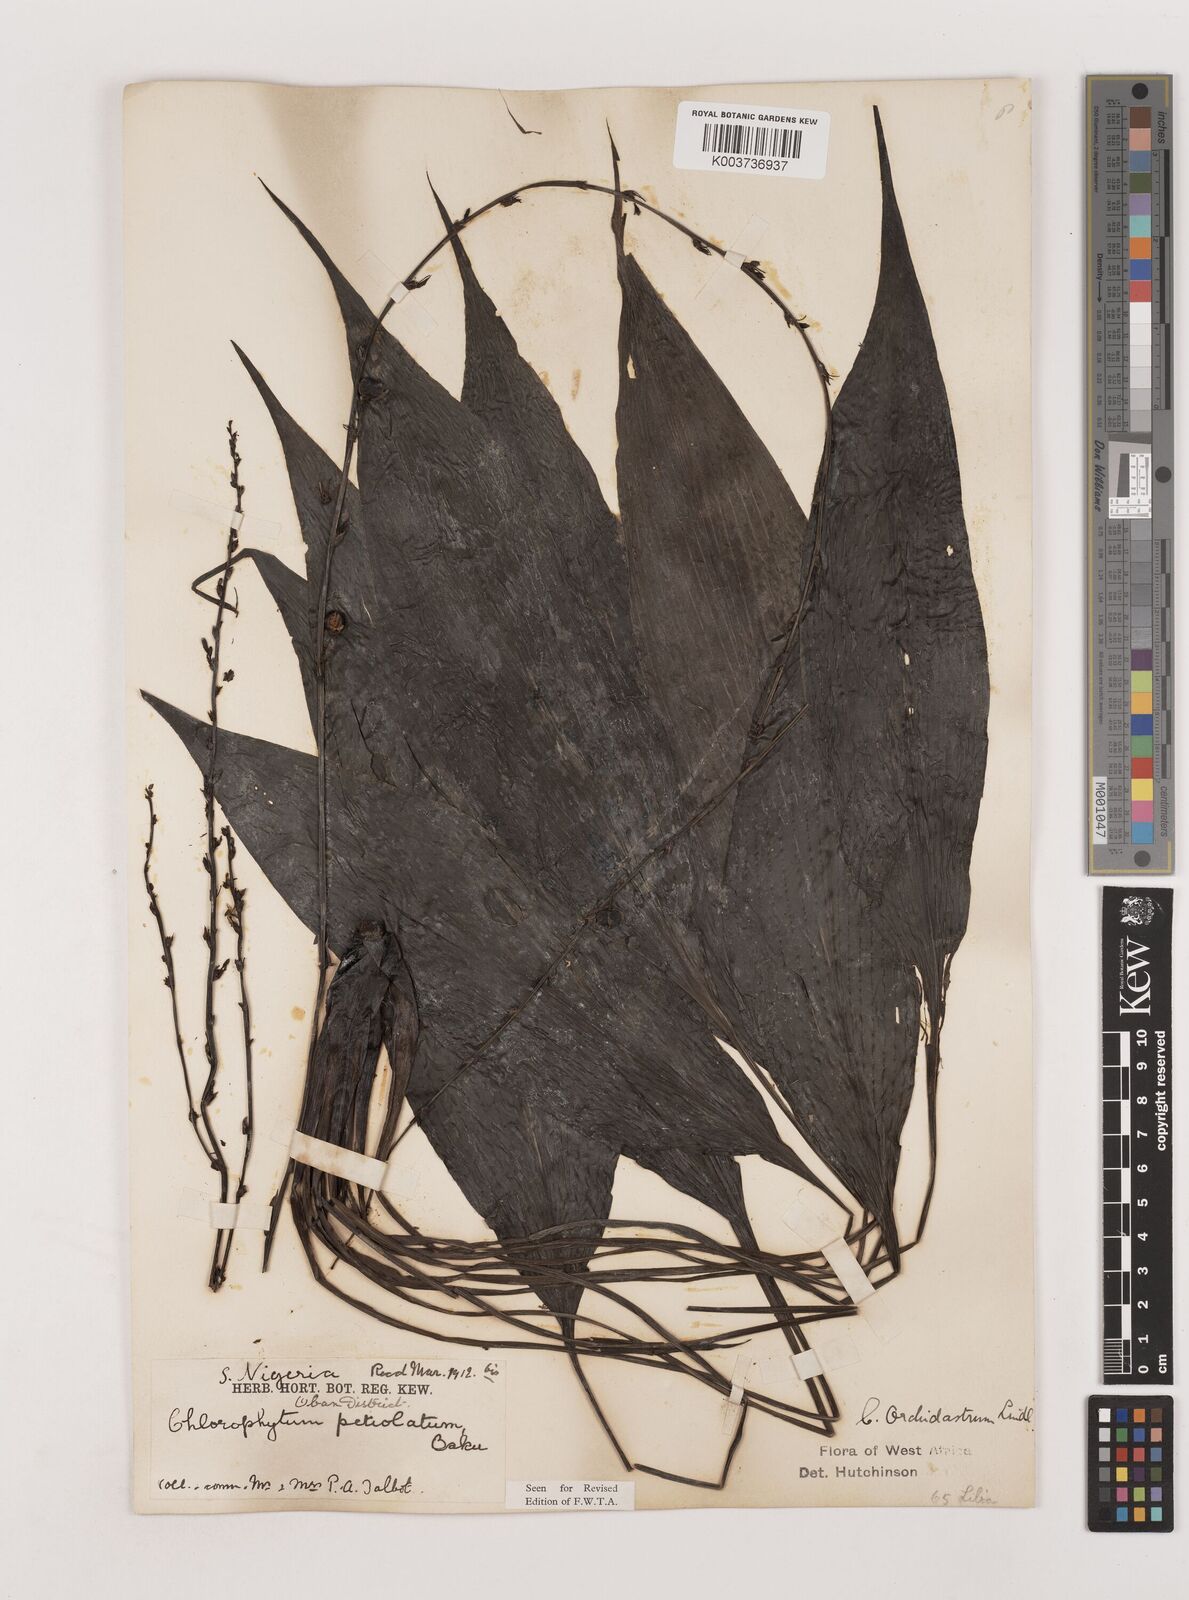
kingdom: Plantae
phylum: Tracheophyta
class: Liliopsida
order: Asparagales
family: Asparagaceae
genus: Chlorophytum
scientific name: Chlorophytum orchidastrum
